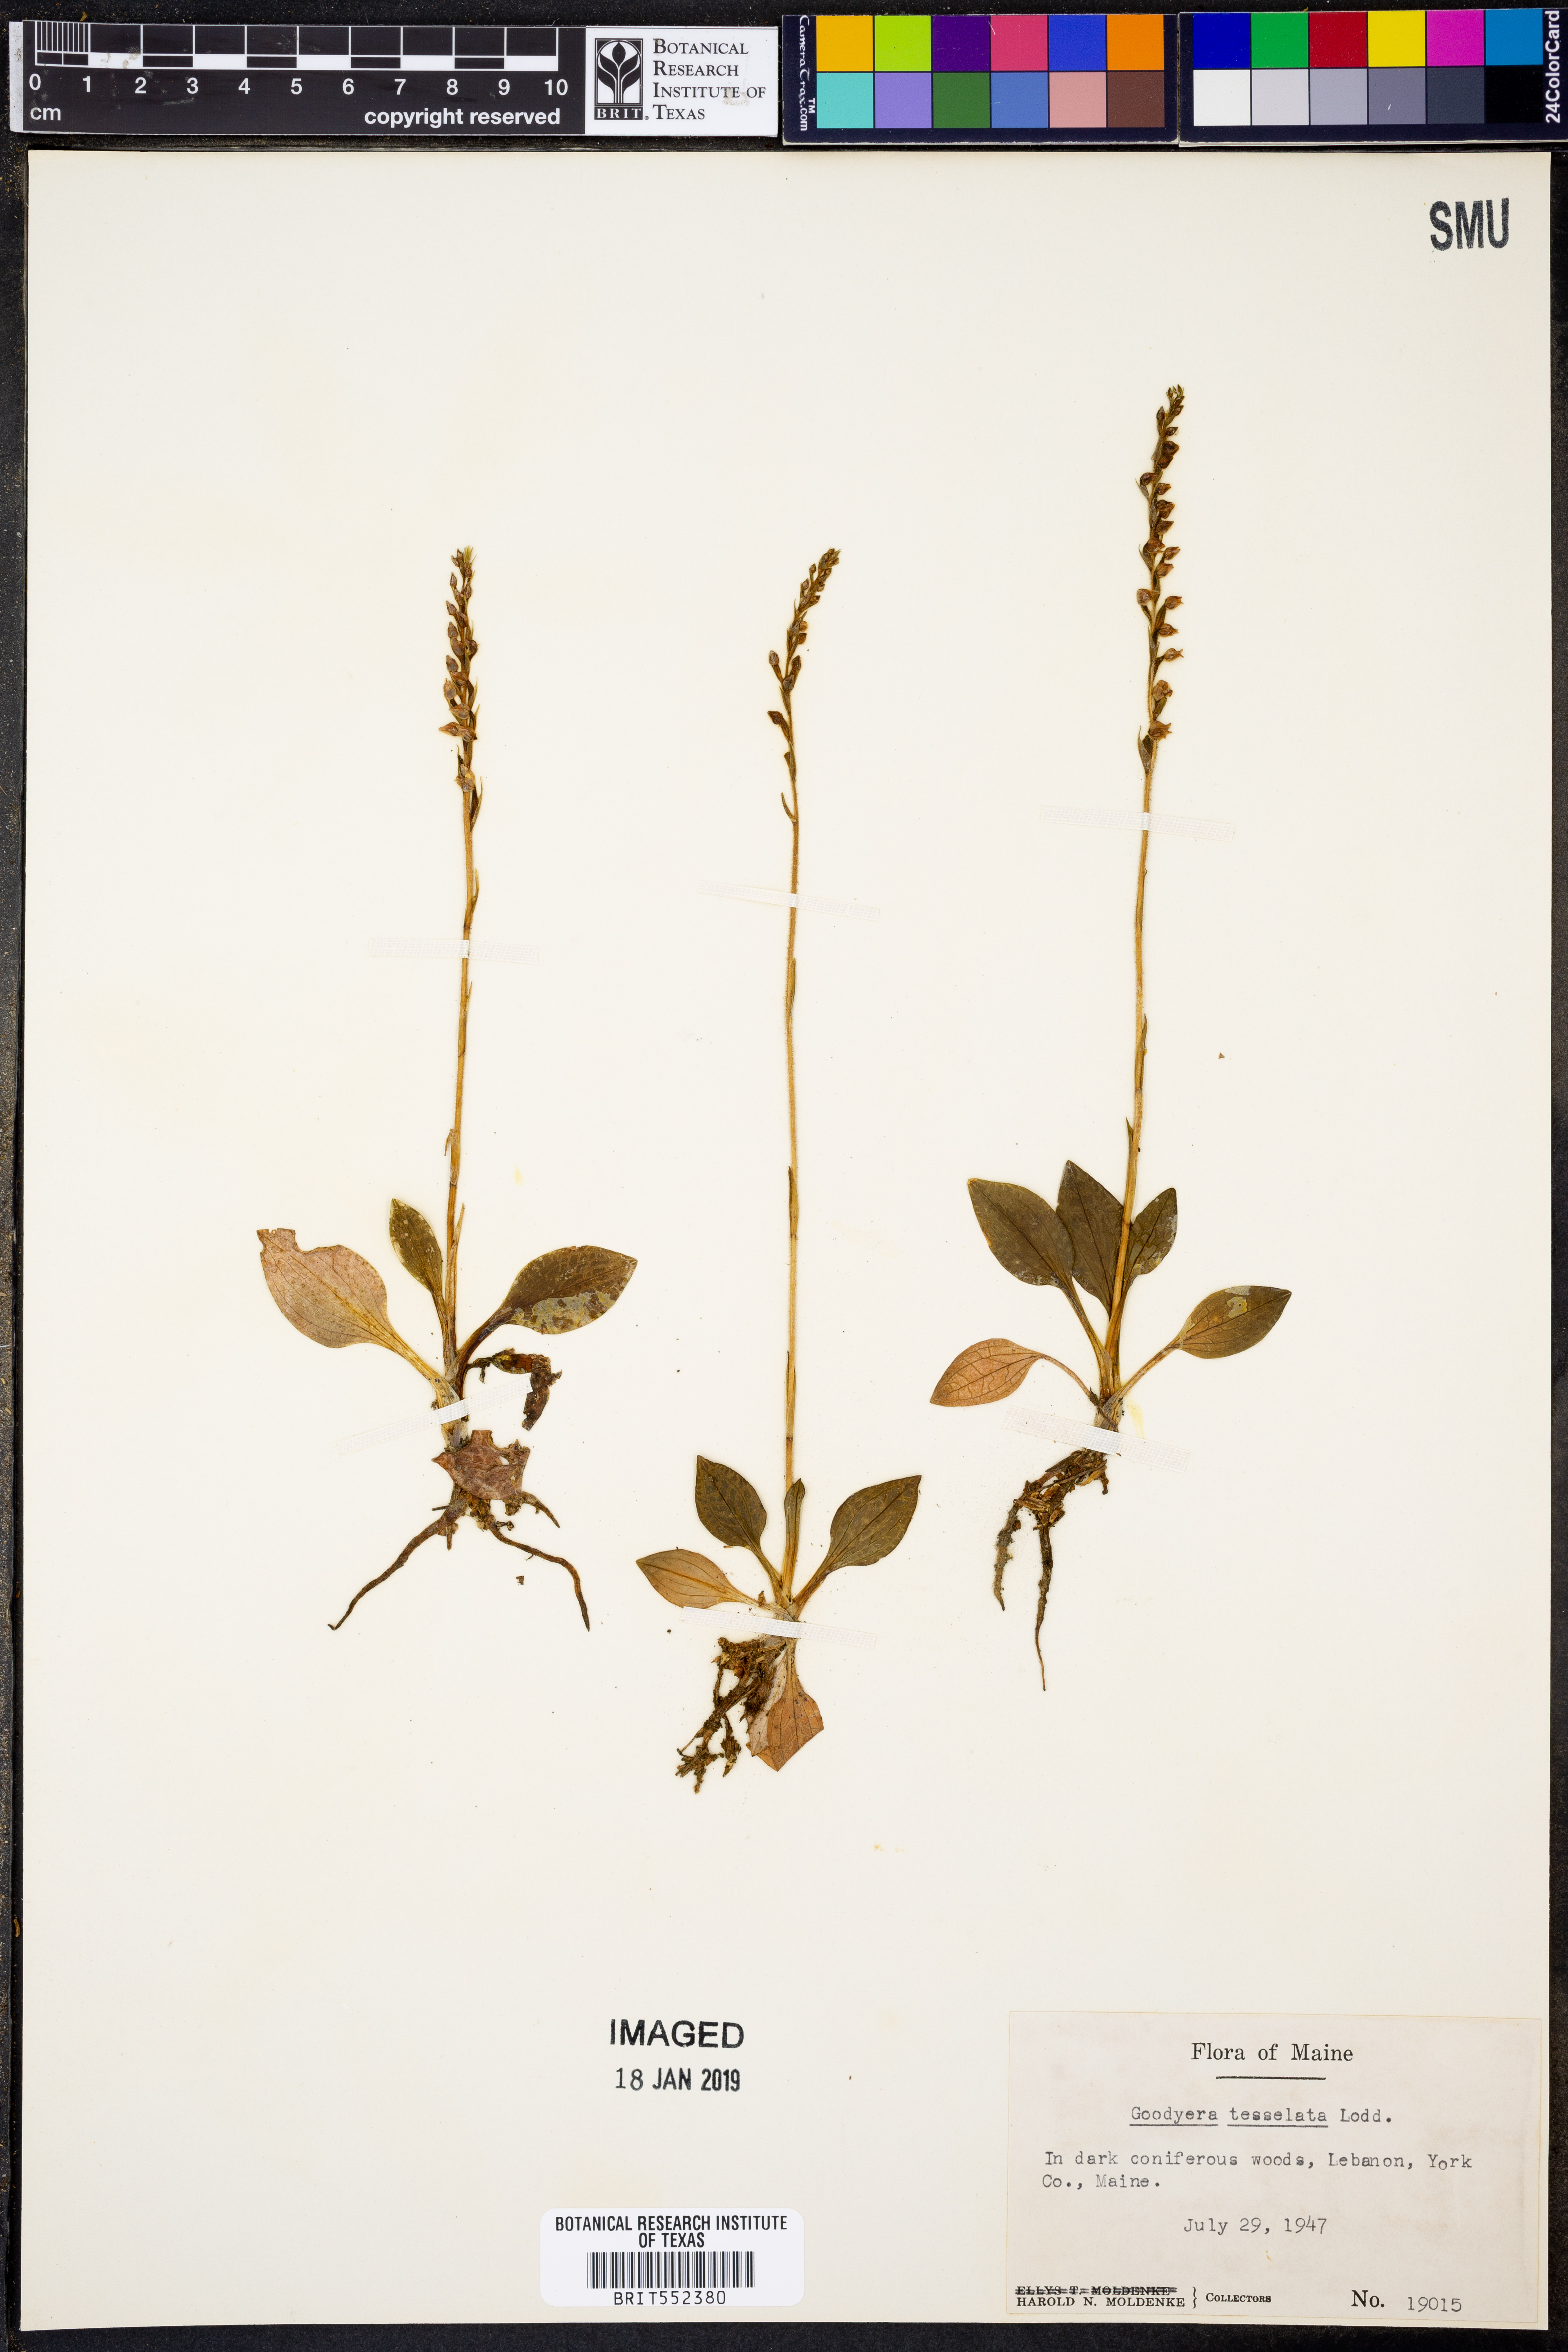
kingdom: Plantae
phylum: Tracheophyta
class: Liliopsida
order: Asparagales
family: Orchidaceae
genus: Goodyera
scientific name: Goodyera tesselata
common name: Checkered rattlesnake-plantain
